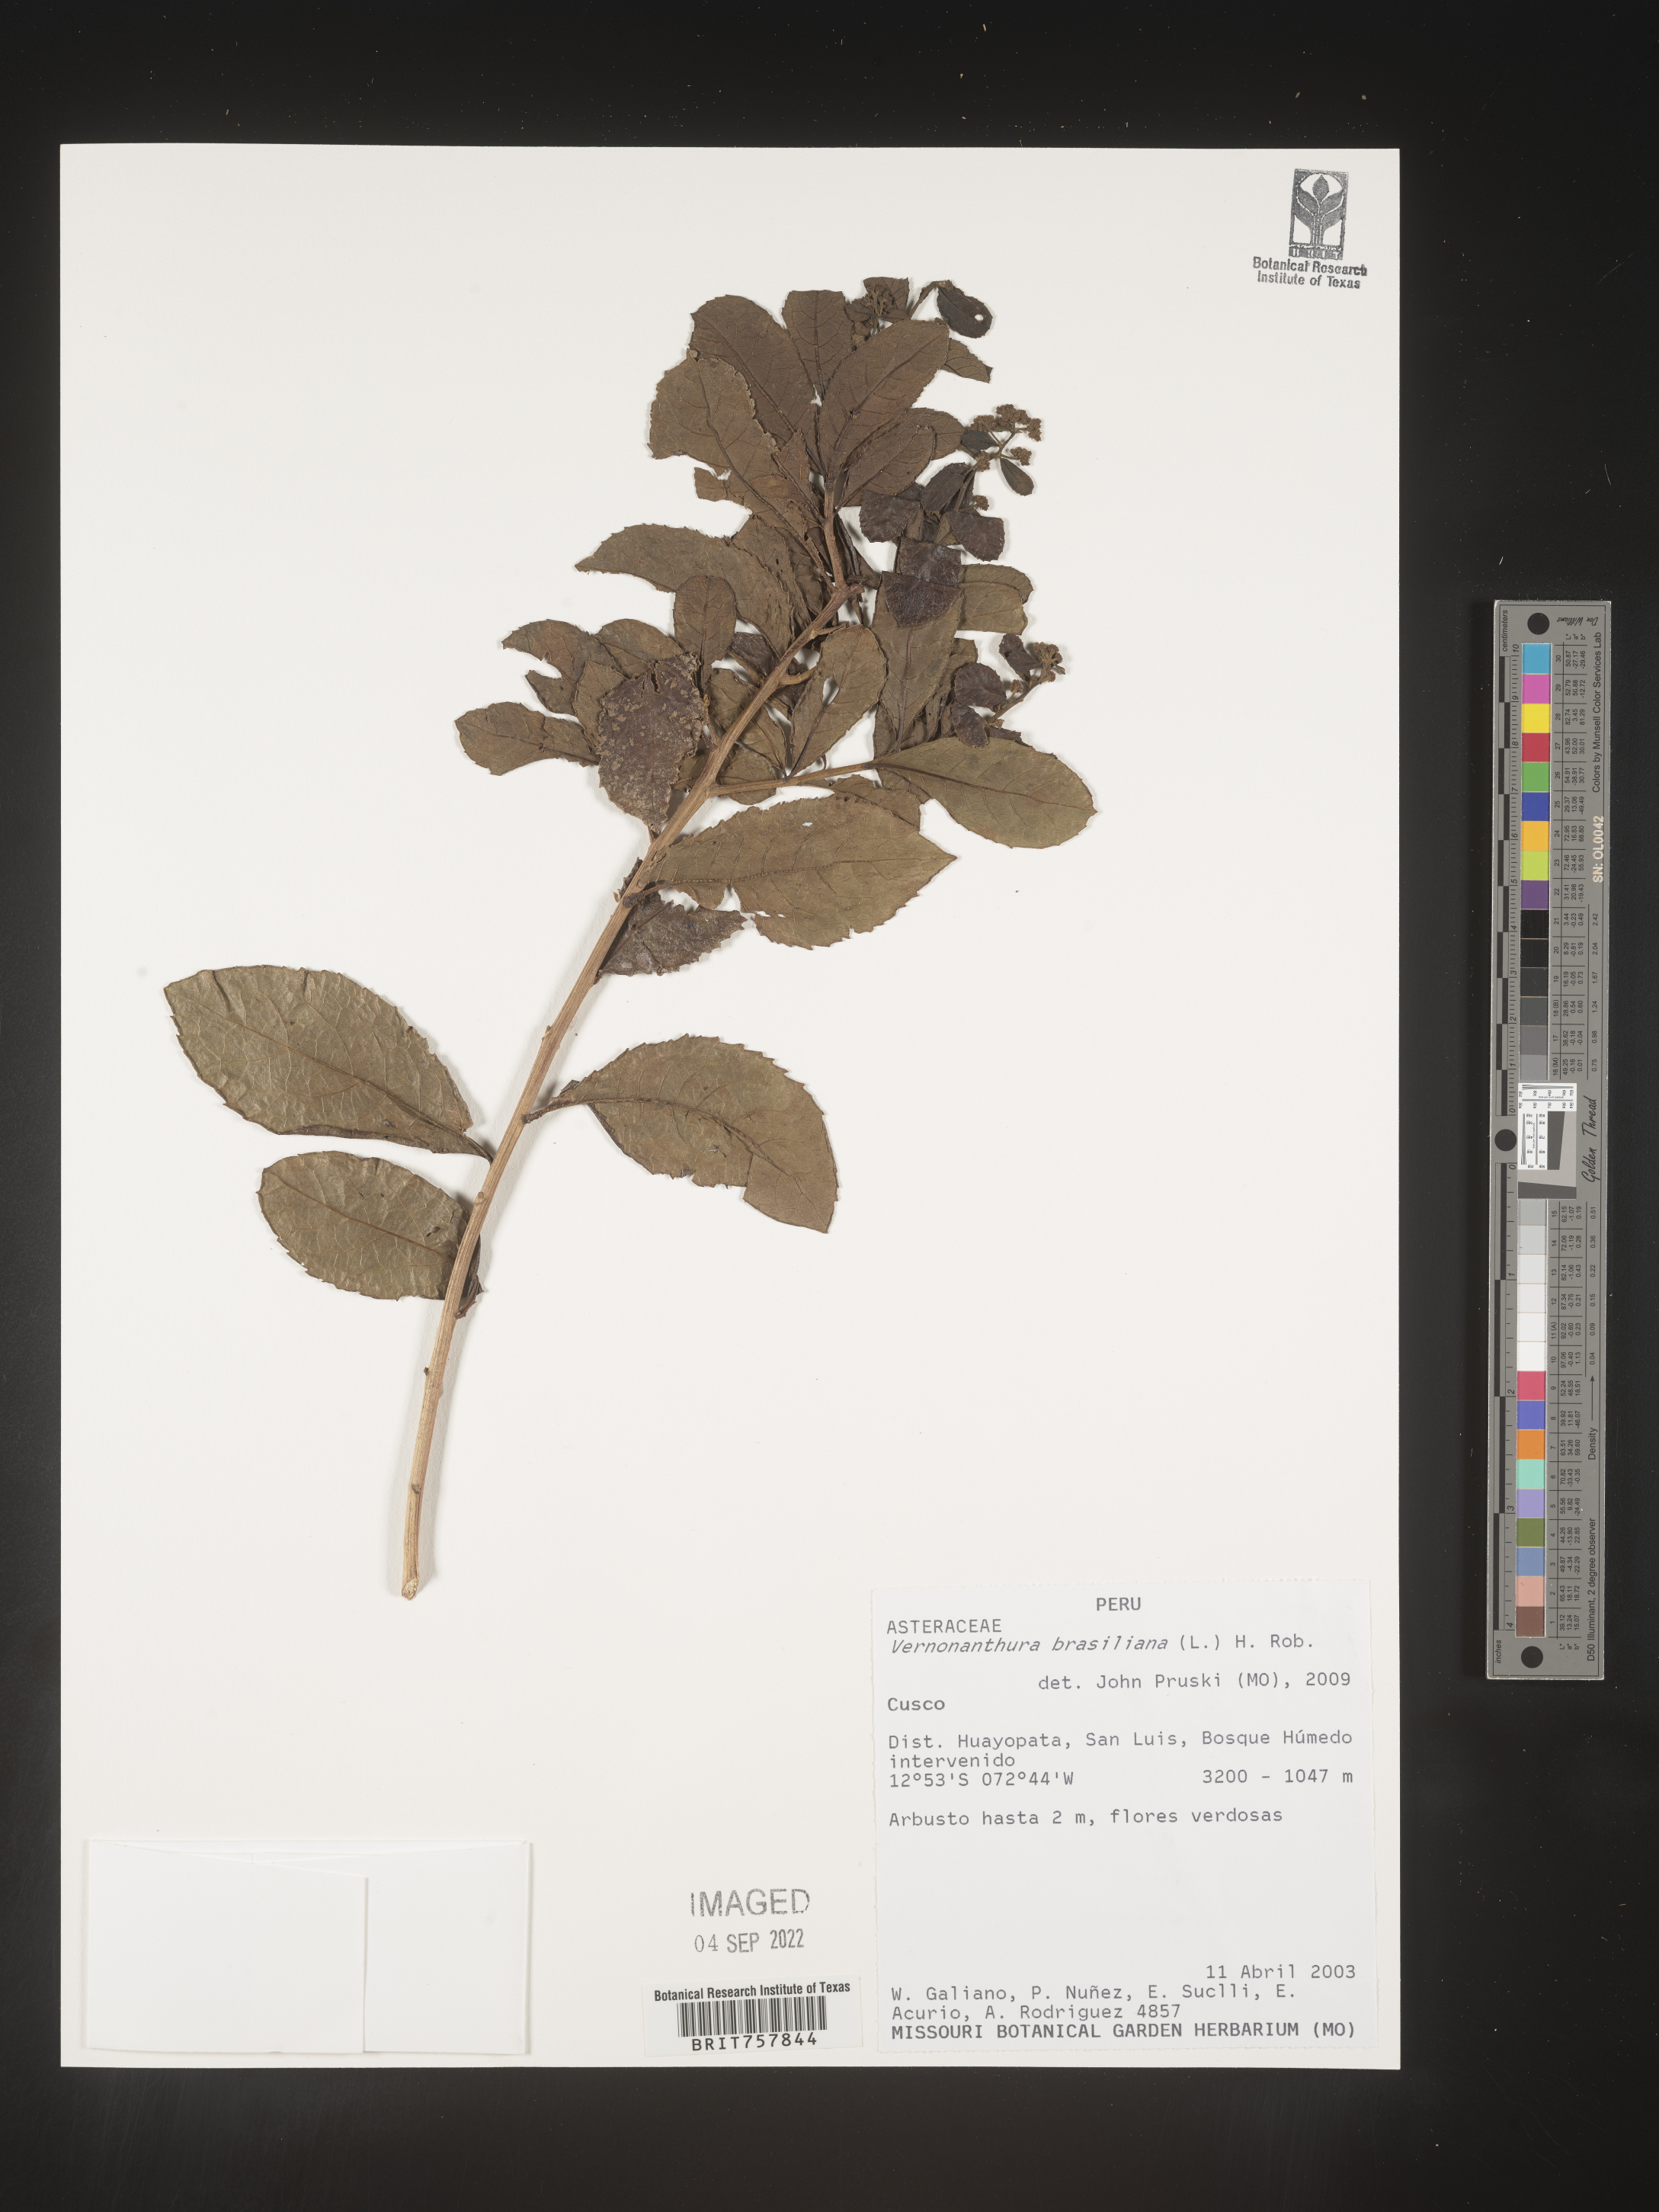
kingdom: Plantae
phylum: Tracheophyta
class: Magnoliopsida
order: Asterales
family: Asteraceae
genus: Vernonanthura
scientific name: Vernonanthura
